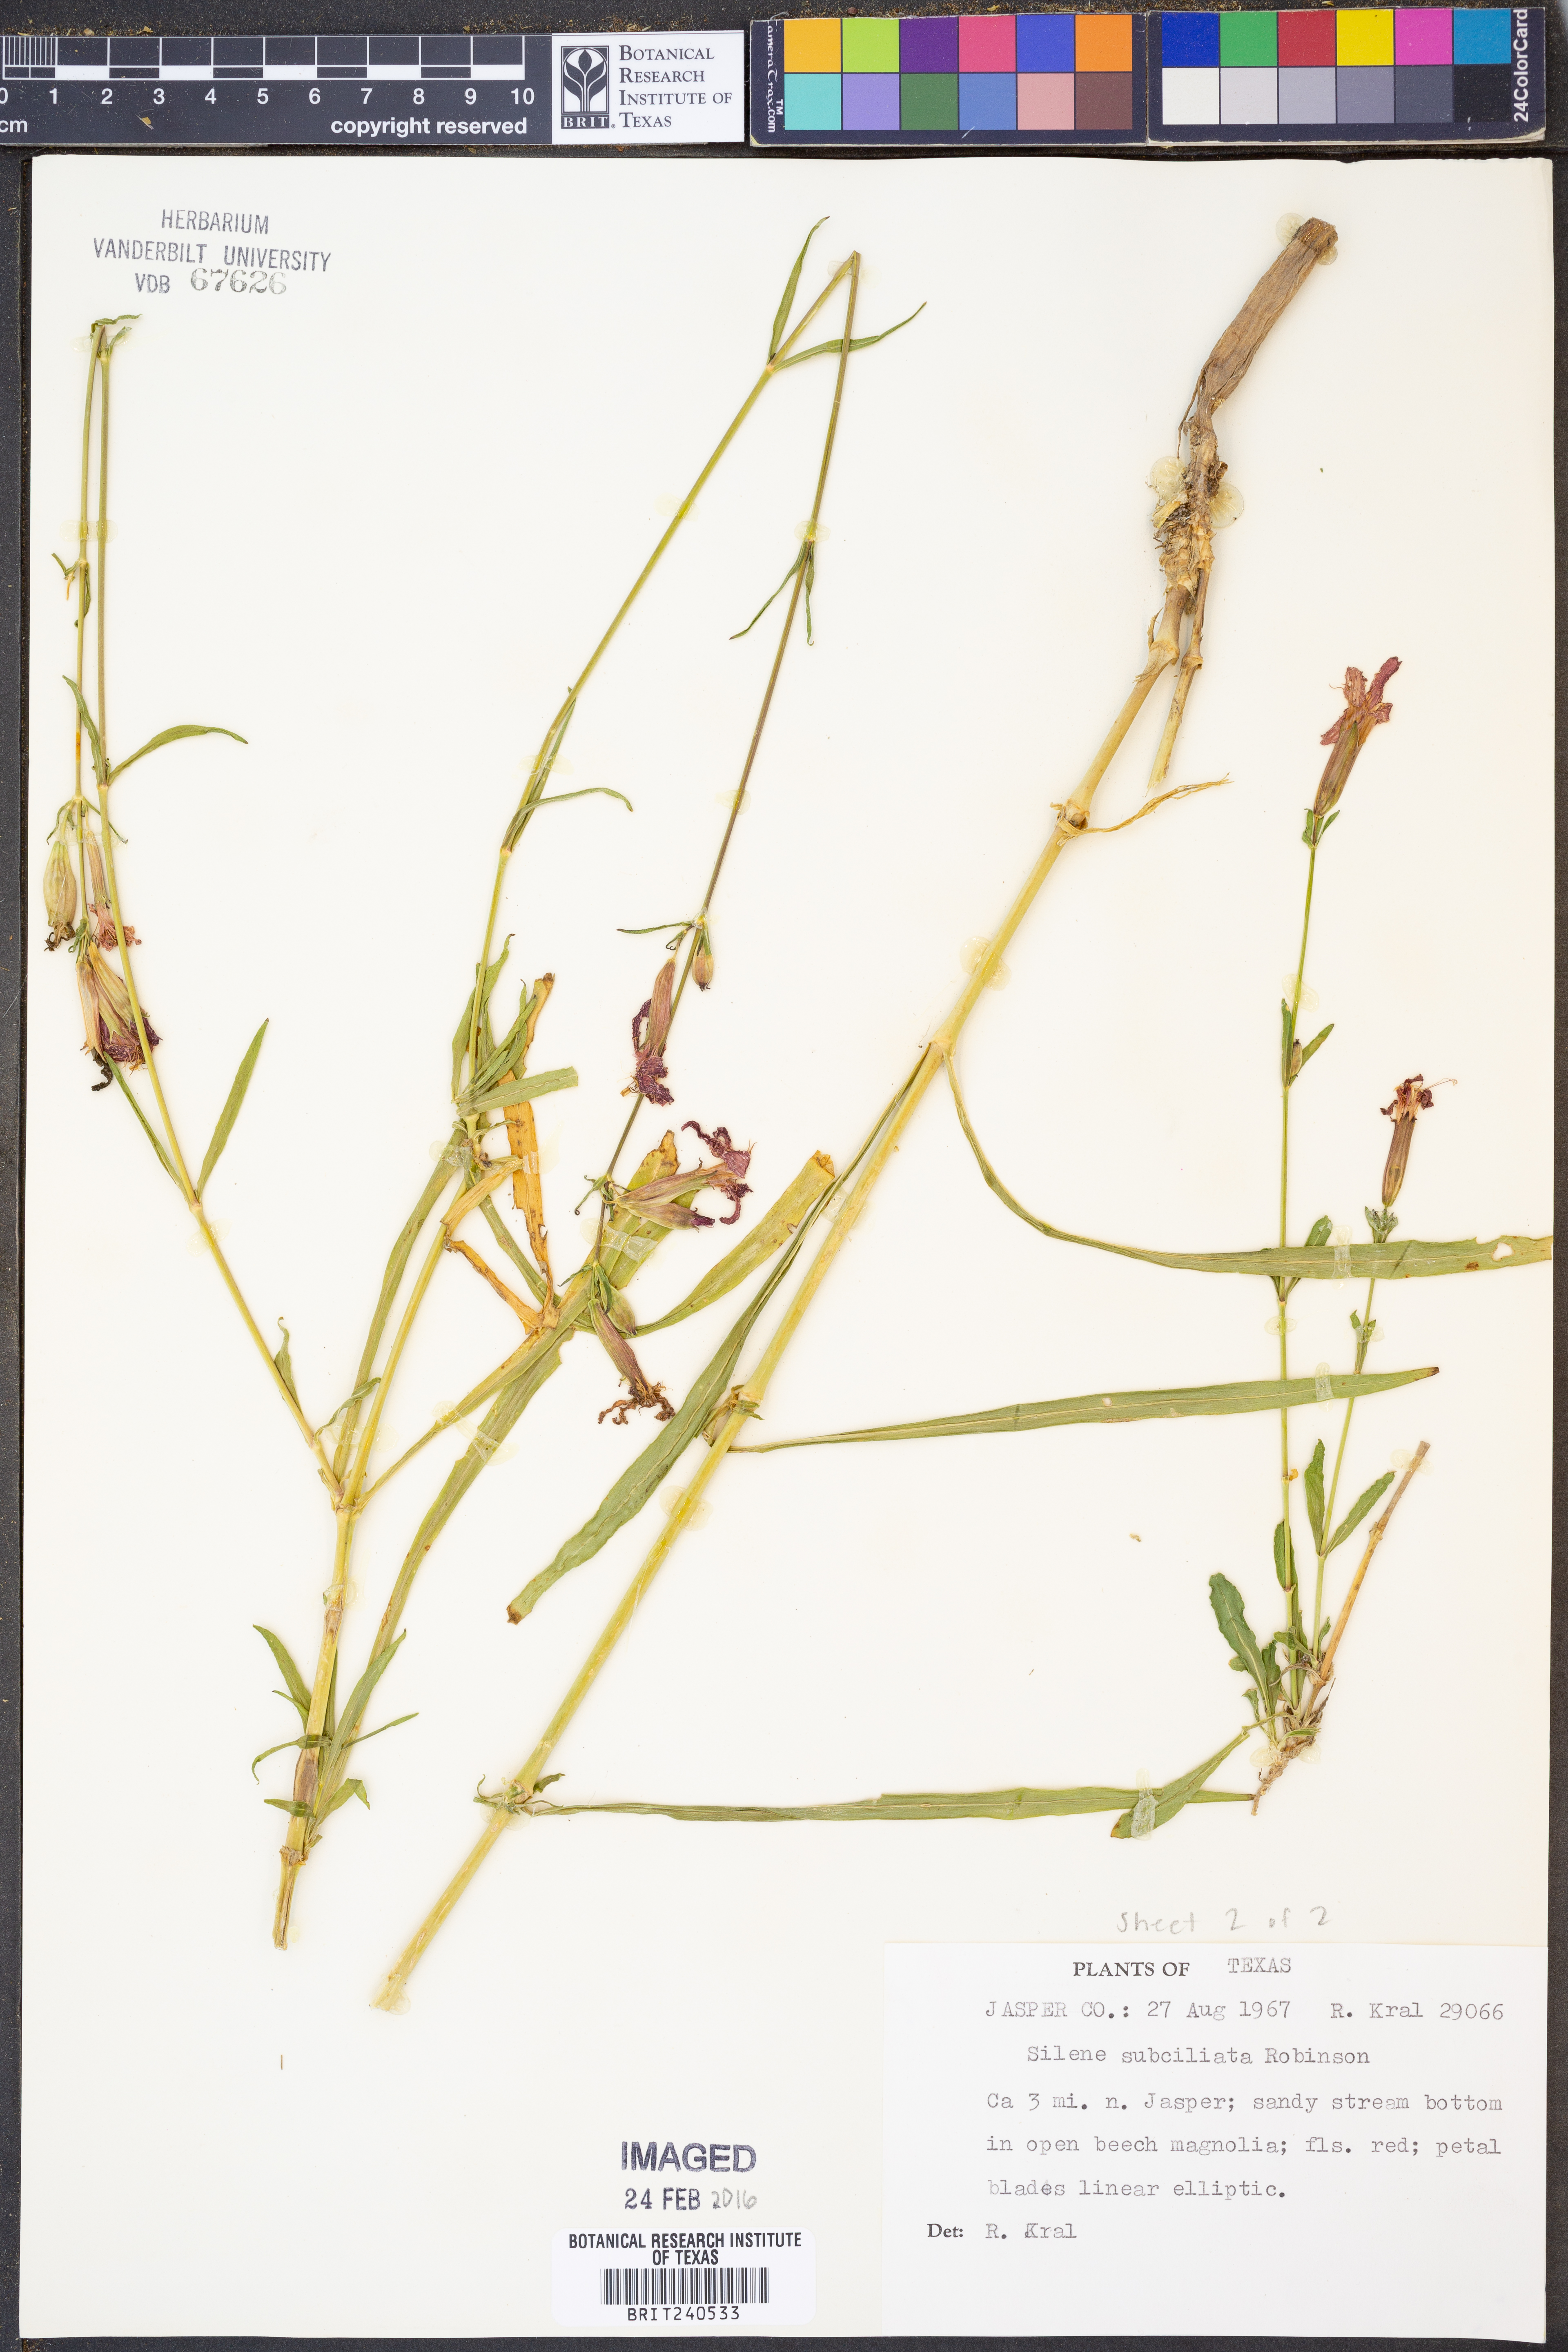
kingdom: Plantae
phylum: Tracheophyta
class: Magnoliopsida
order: Caryophyllales
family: Caryophyllaceae
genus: Silene
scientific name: Silene subciliata
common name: Prairie fire-pink
